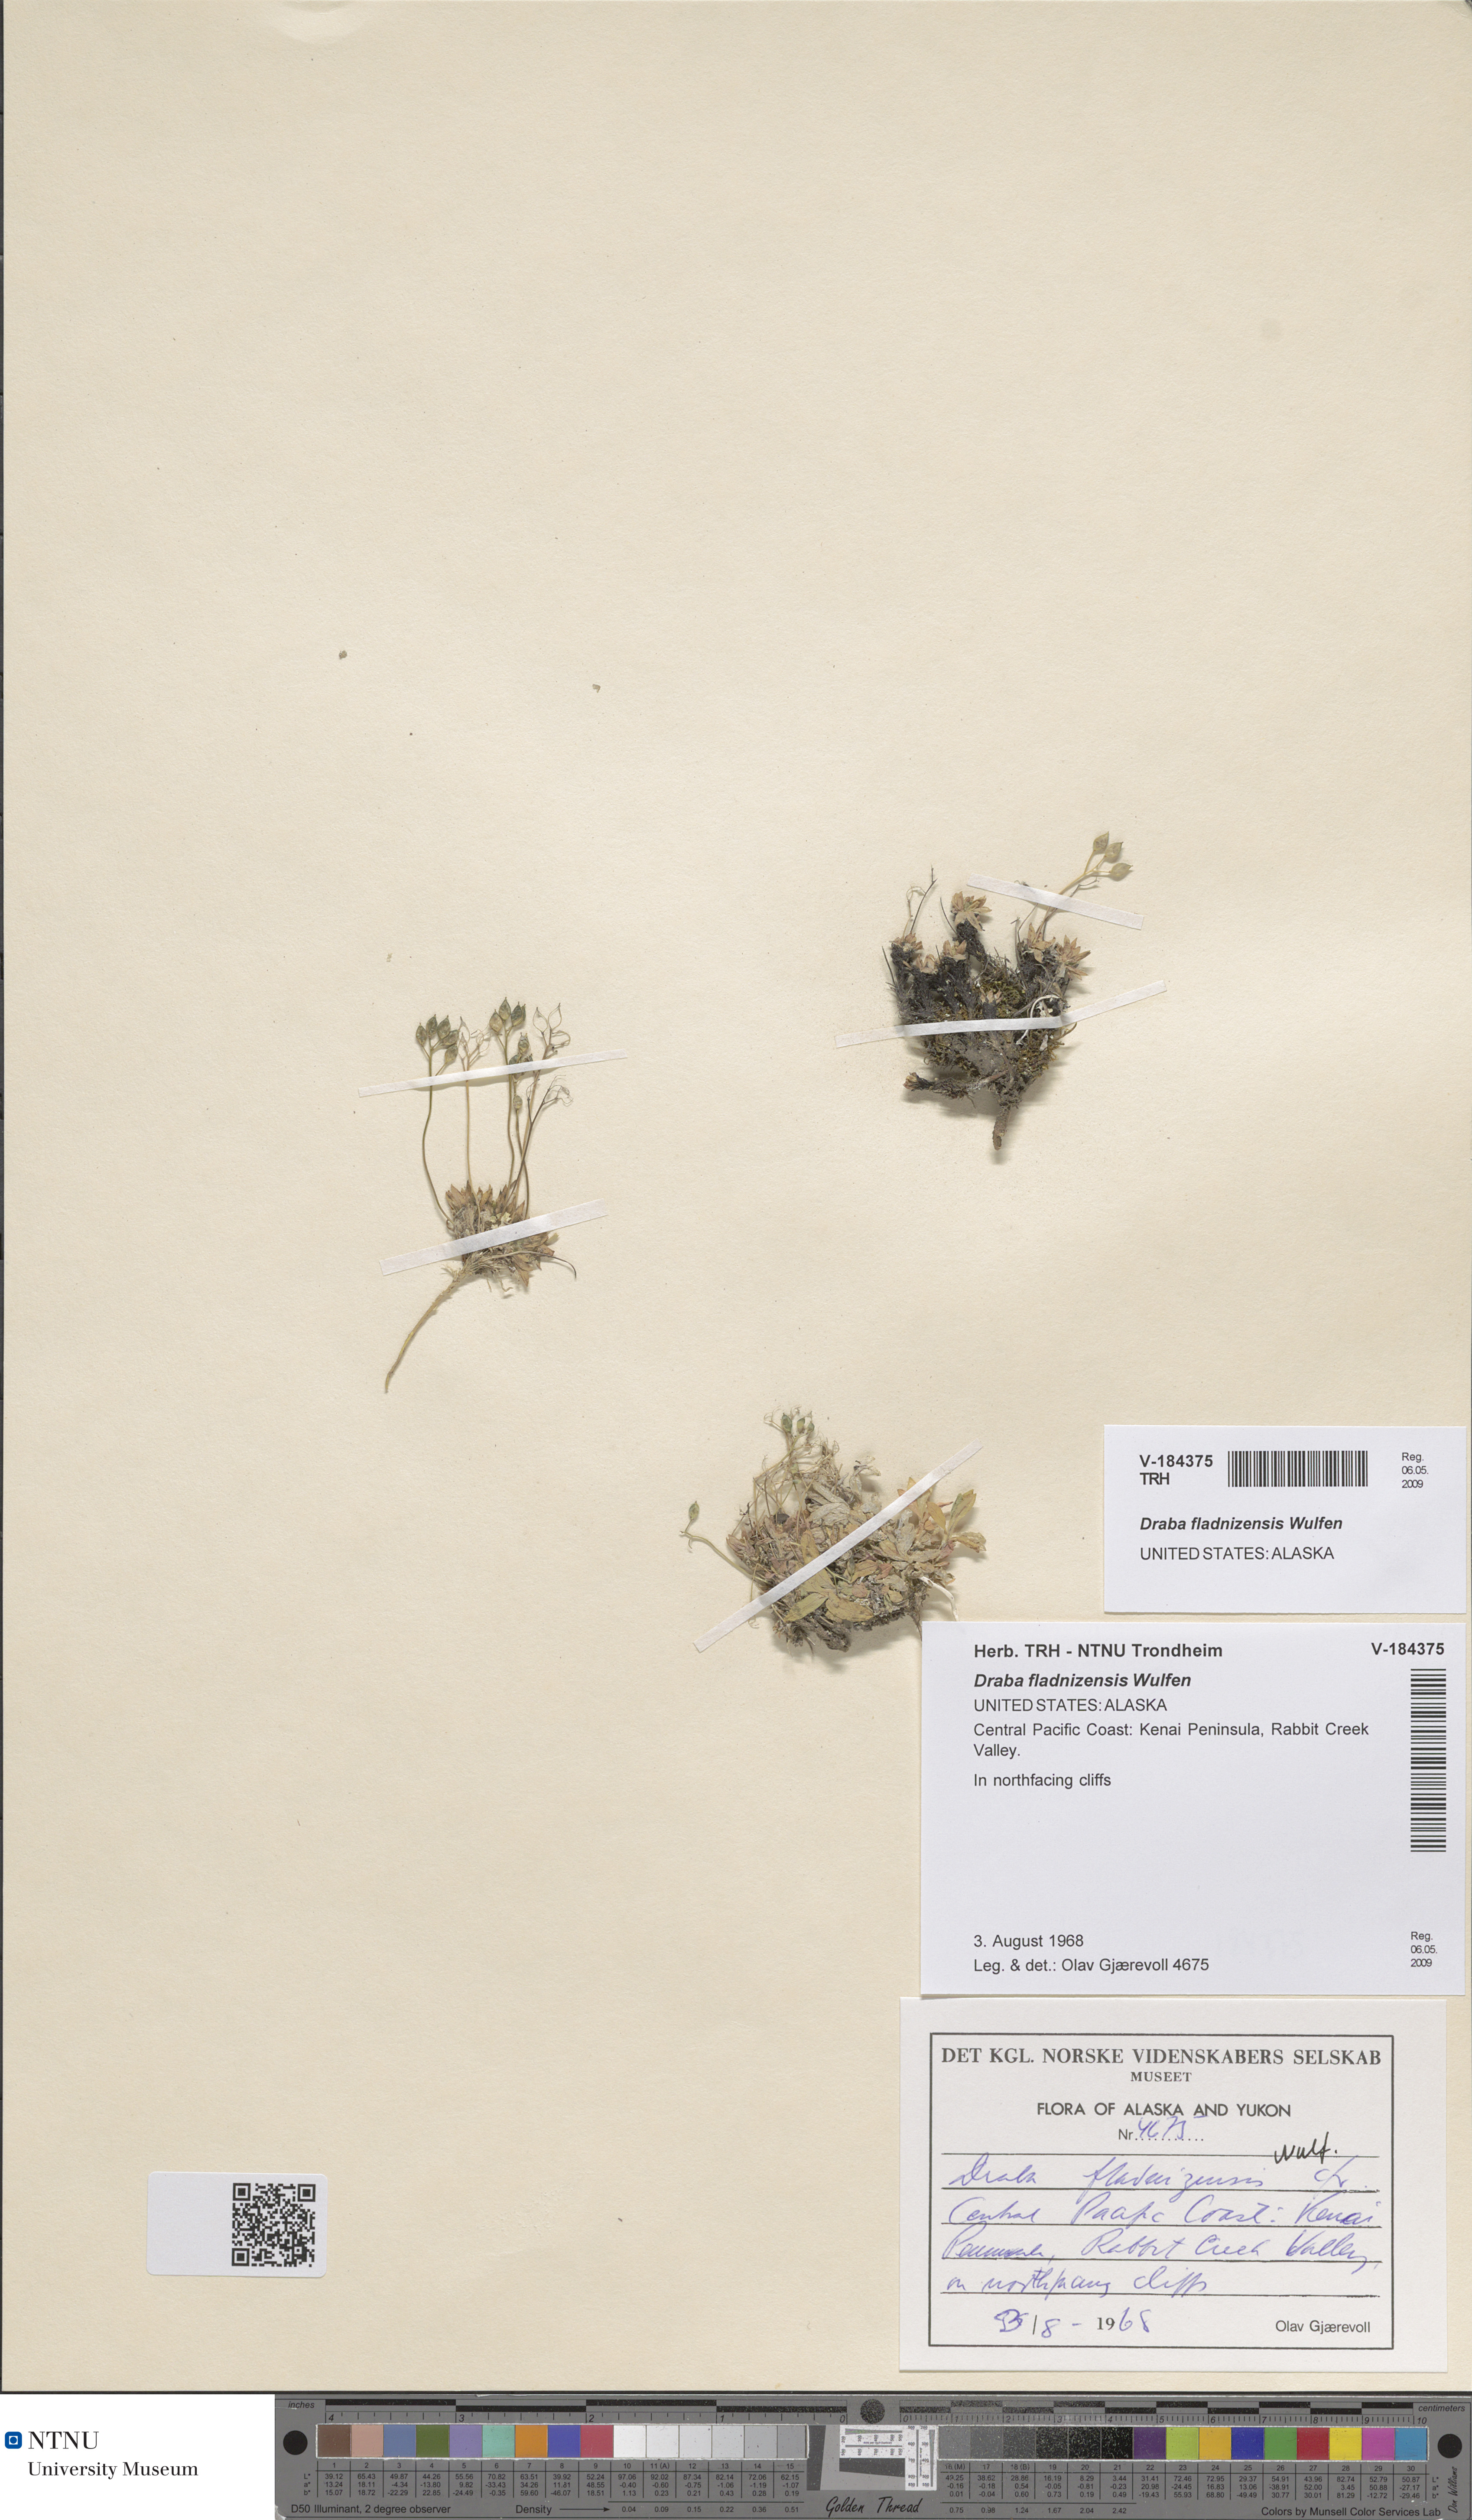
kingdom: Plantae
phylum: Tracheophyta
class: Magnoliopsida
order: Brassicales
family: Brassicaceae
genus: Draba
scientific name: Draba fladnizensis
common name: Austrian draba
